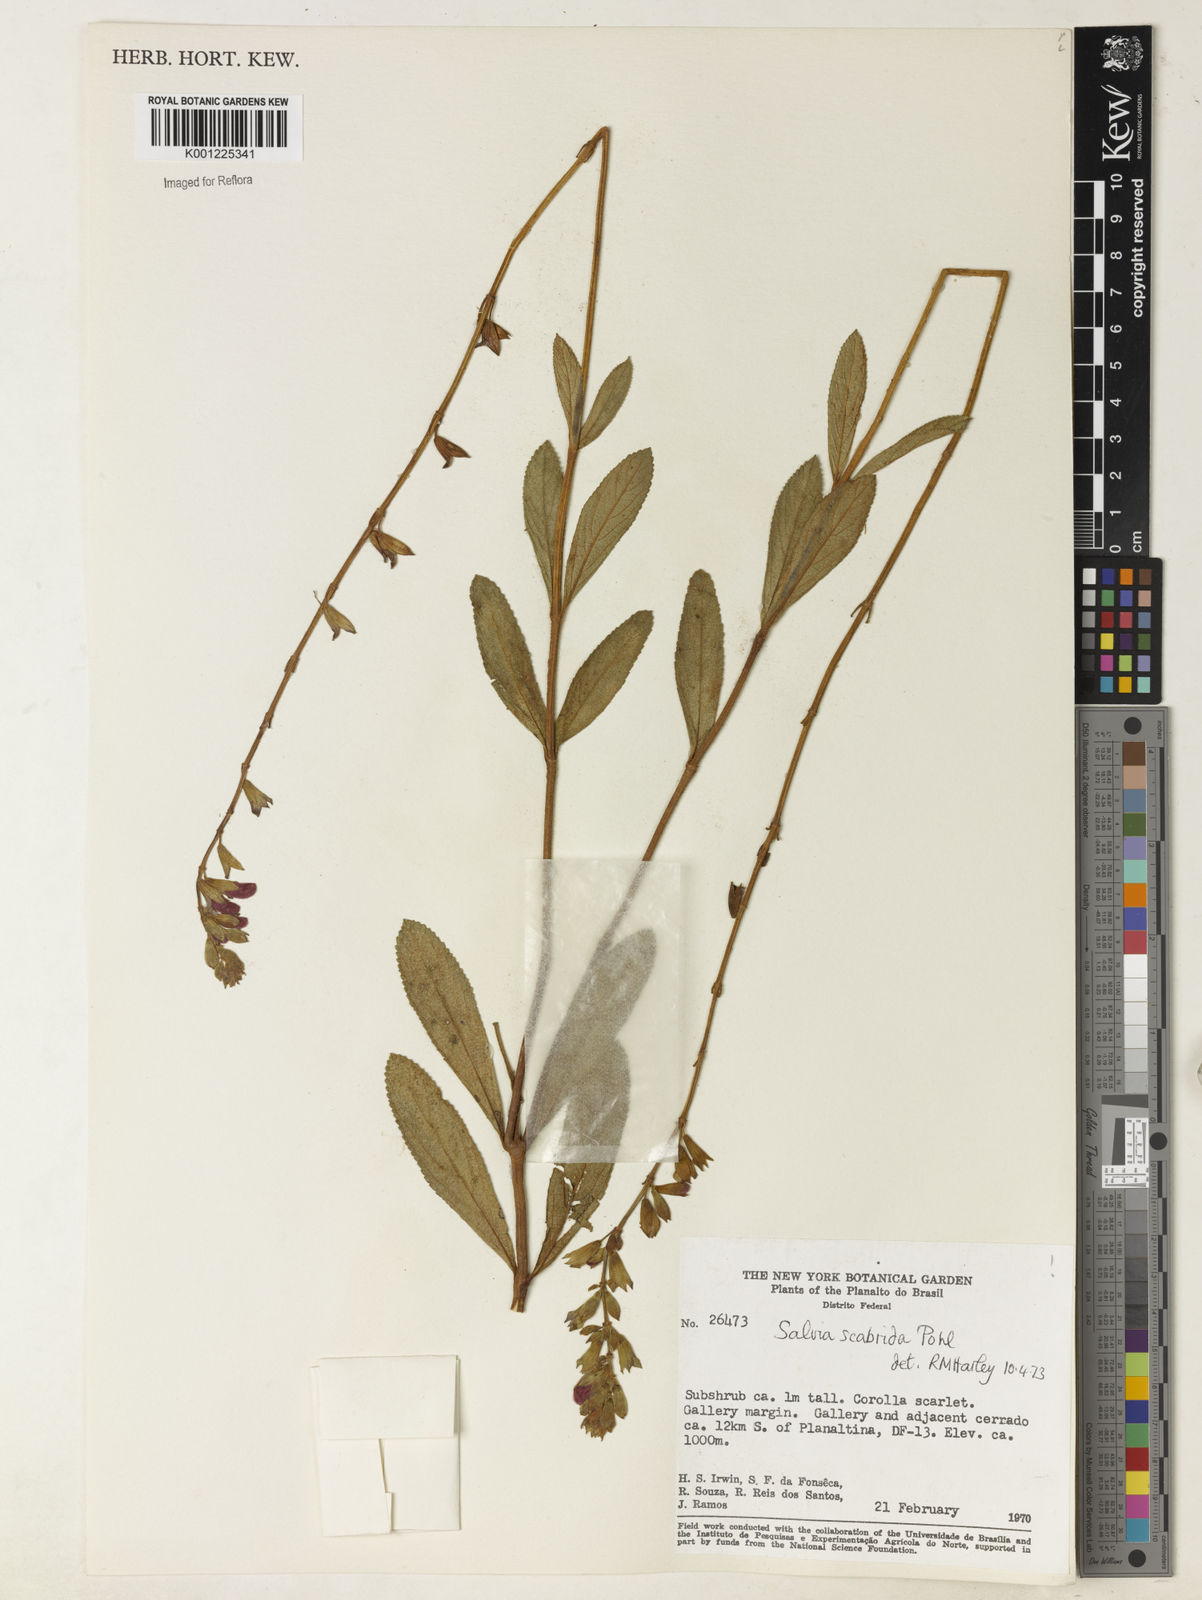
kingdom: Plantae
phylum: Tracheophyta
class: Magnoliopsida
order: Lamiales
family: Lamiaceae
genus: Salvia
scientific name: Salvia scabrida
